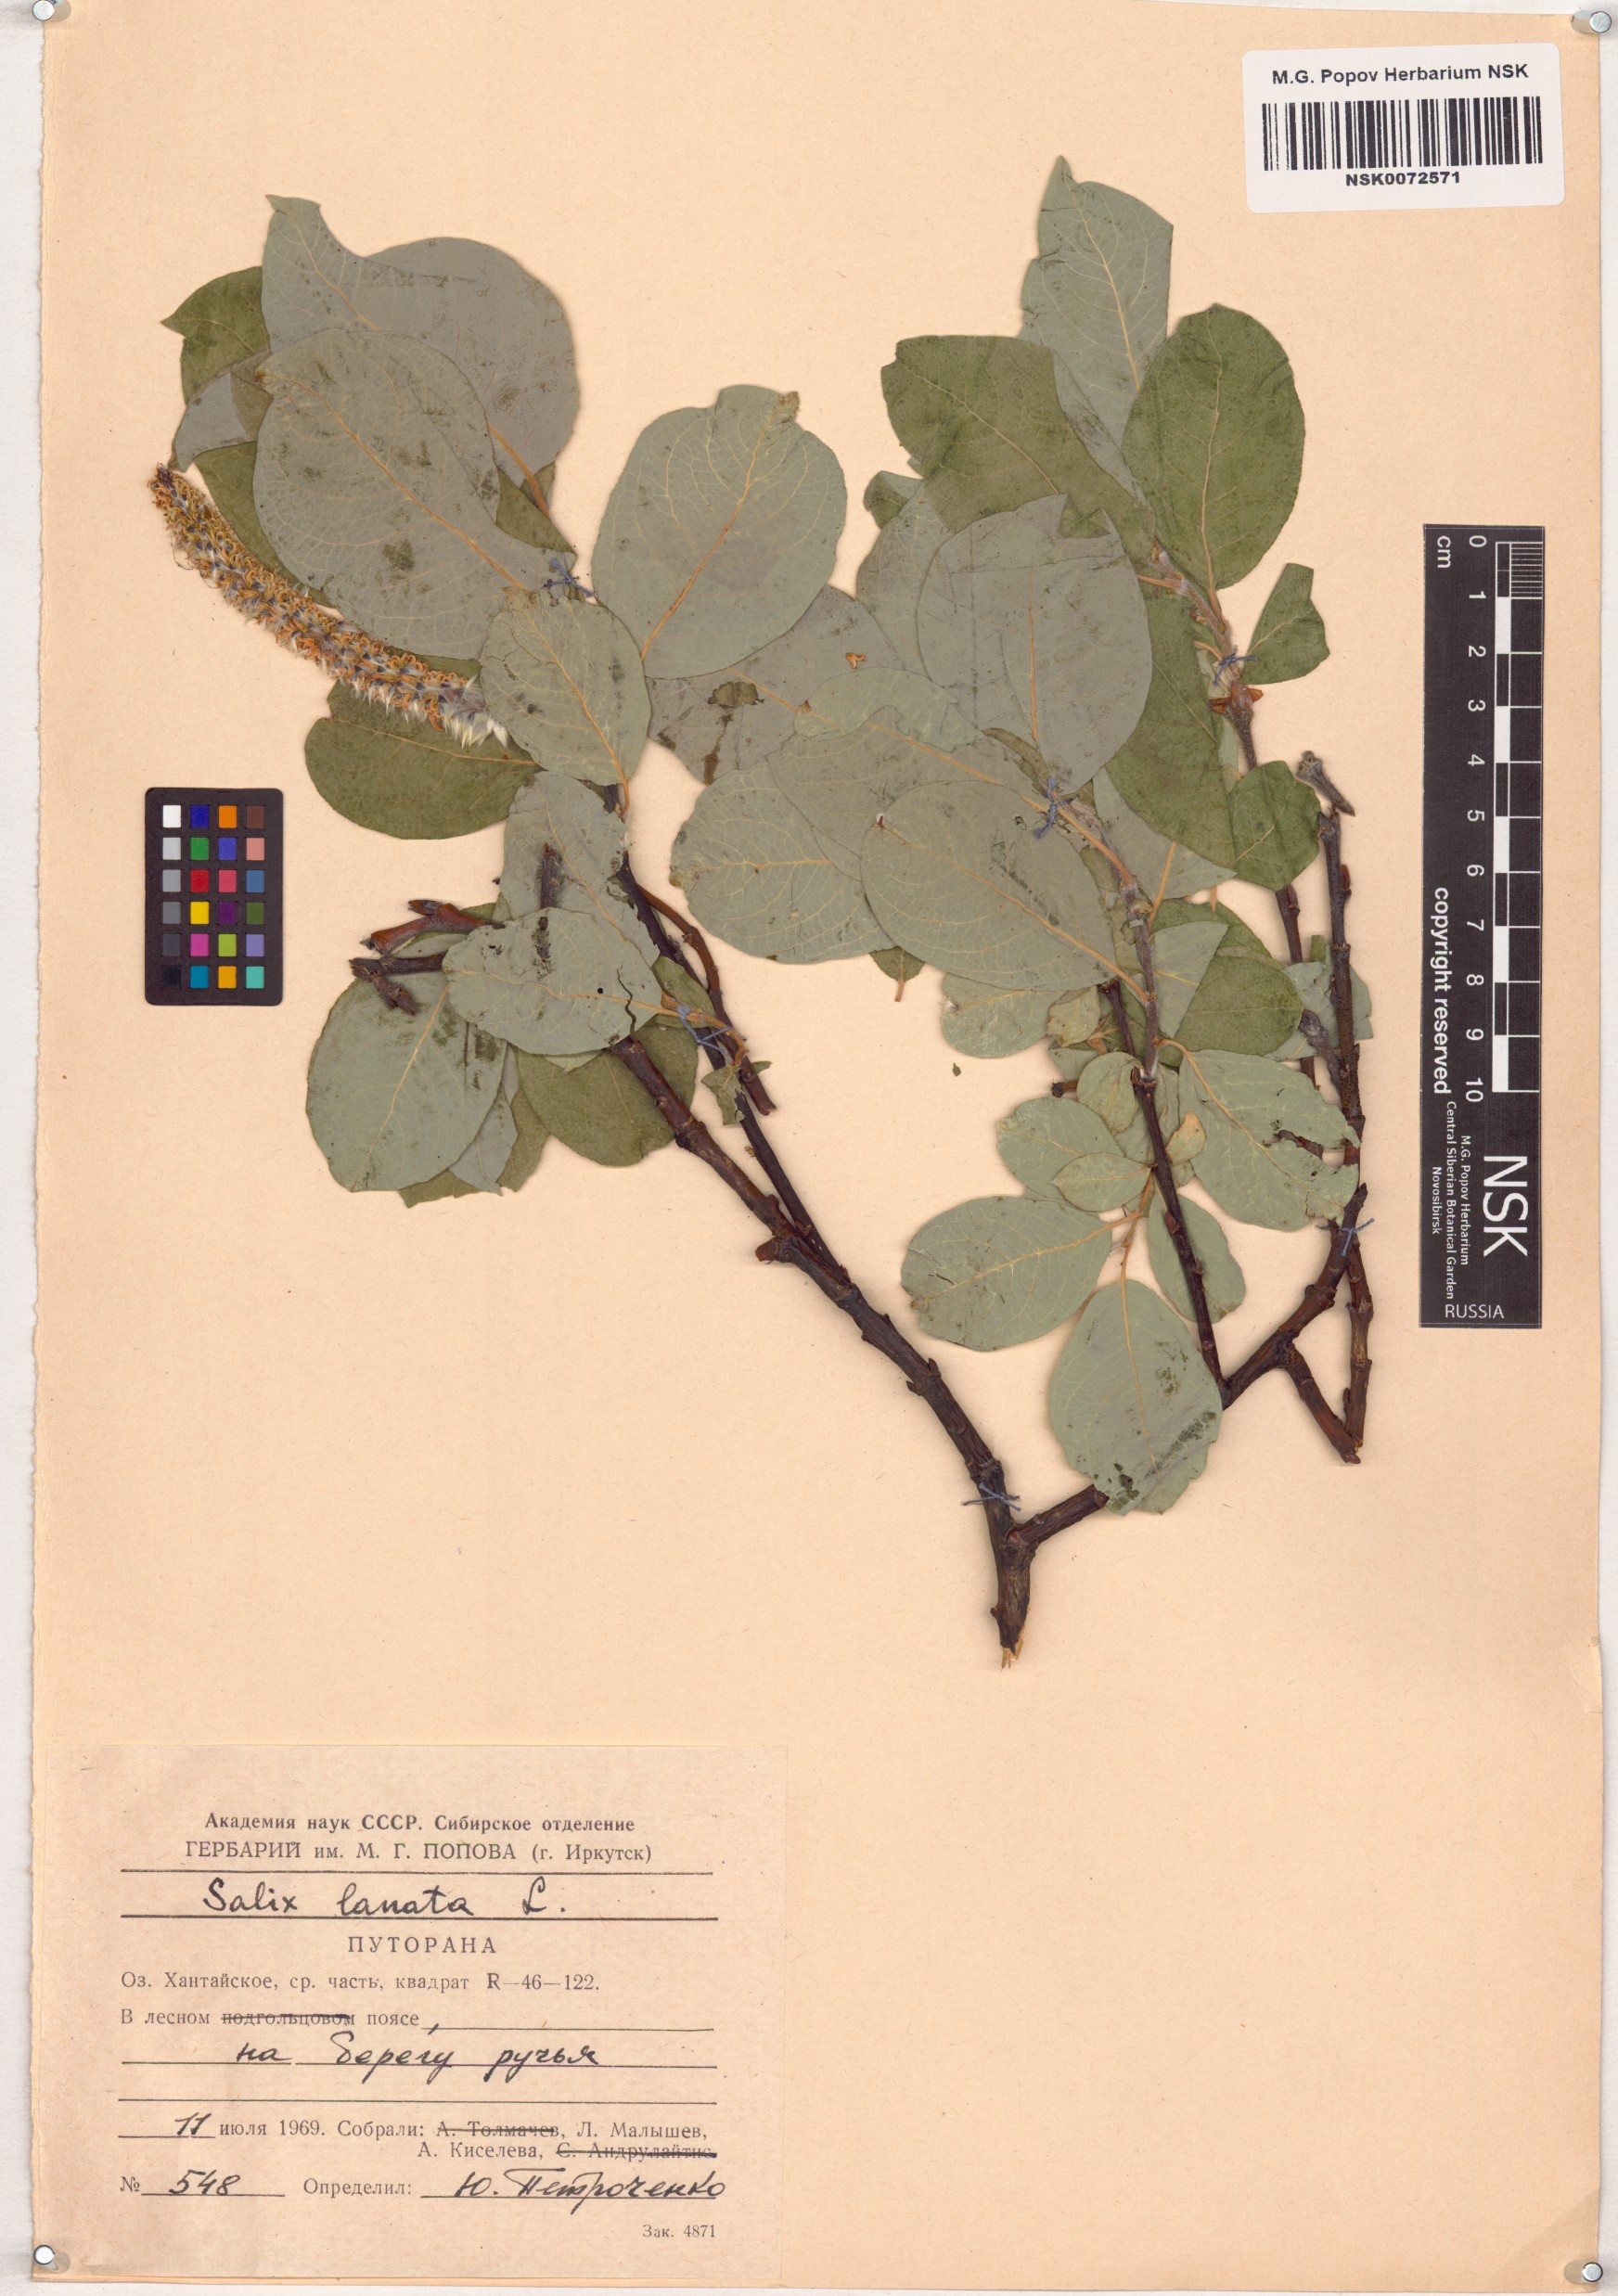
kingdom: Plantae
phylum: Tracheophyta
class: Magnoliopsida
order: Malpighiales
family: Salicaceae
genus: Salix
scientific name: Salix lanata
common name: Woolly willow
